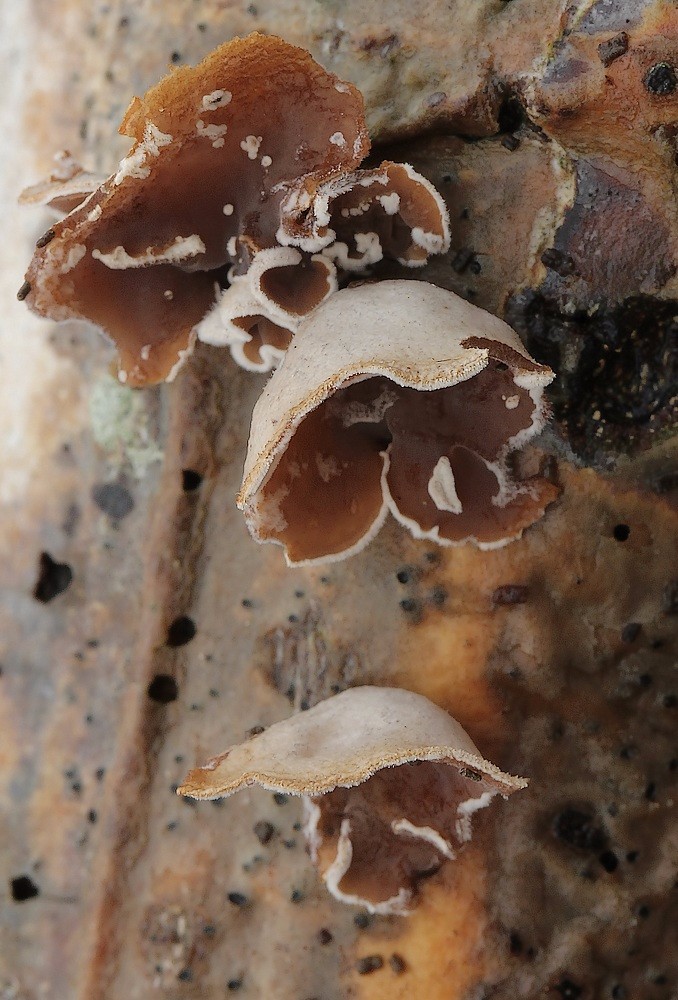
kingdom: Fungi
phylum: Basidiomycota
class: Agaricomycetes
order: Agaricales
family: Schizophyllaceae
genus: Schizophyllum
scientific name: Schizophyllum amplum
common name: poppel-hængeøre
